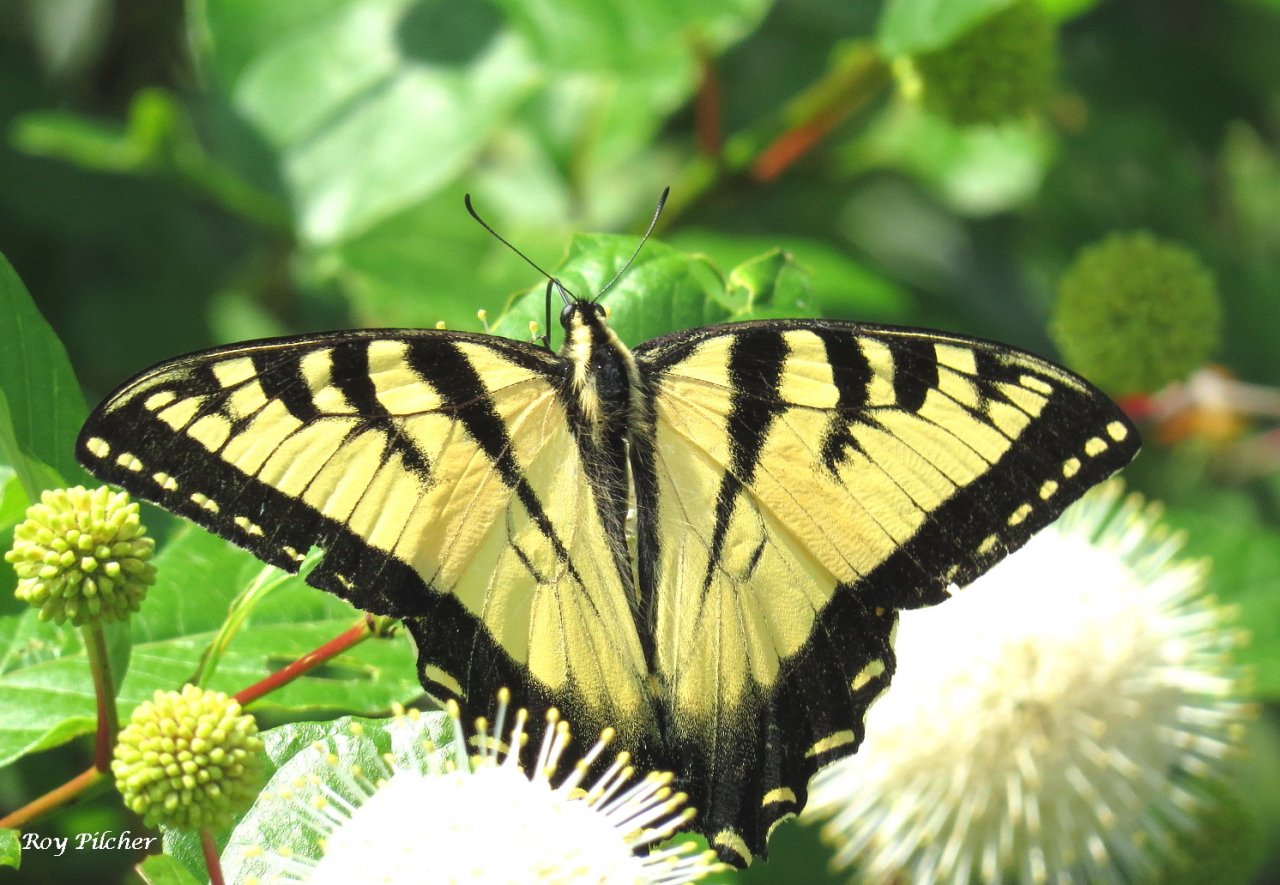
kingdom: Animalia
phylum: Arthropoda
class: Insecta
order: Lepidoptera
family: Papilionidae
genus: Papilio
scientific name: Papilio
